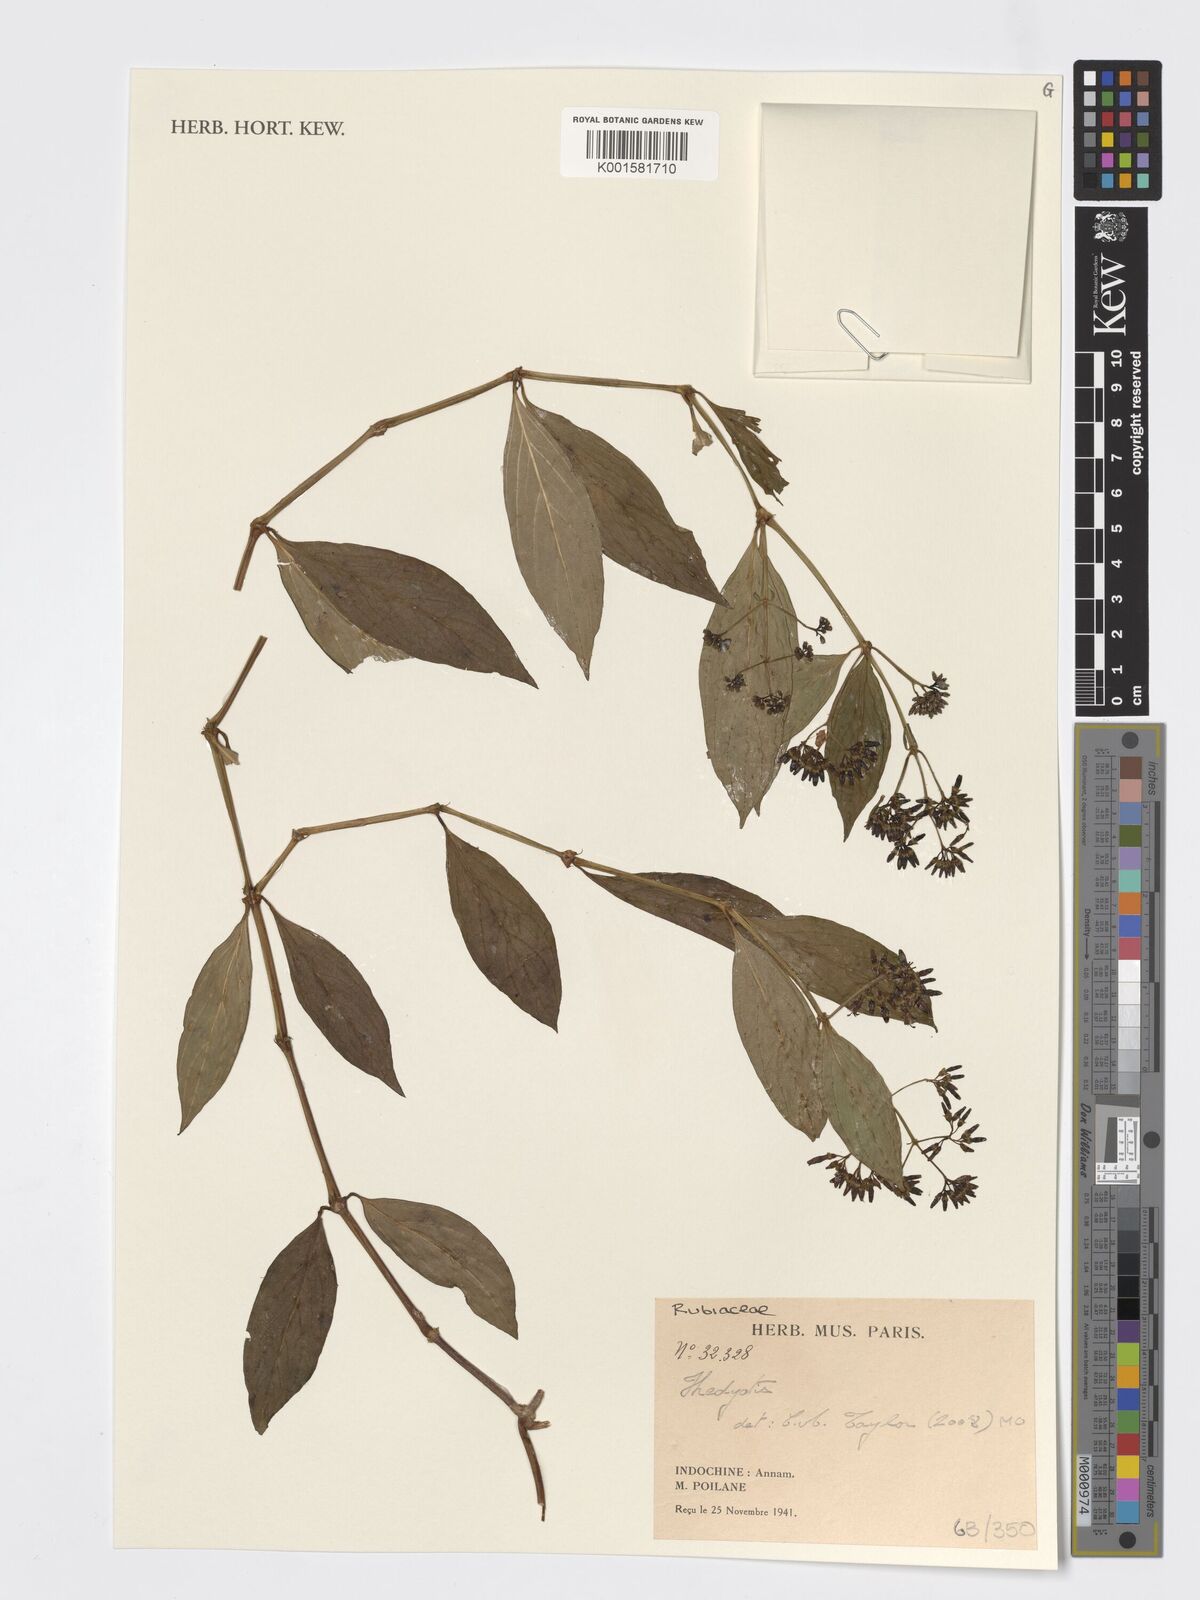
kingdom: Plantae
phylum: Tracheophyta
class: Magnoliopsida
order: Gentianales
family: Rubiaceae
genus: Hedyotis
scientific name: Hedyotis
